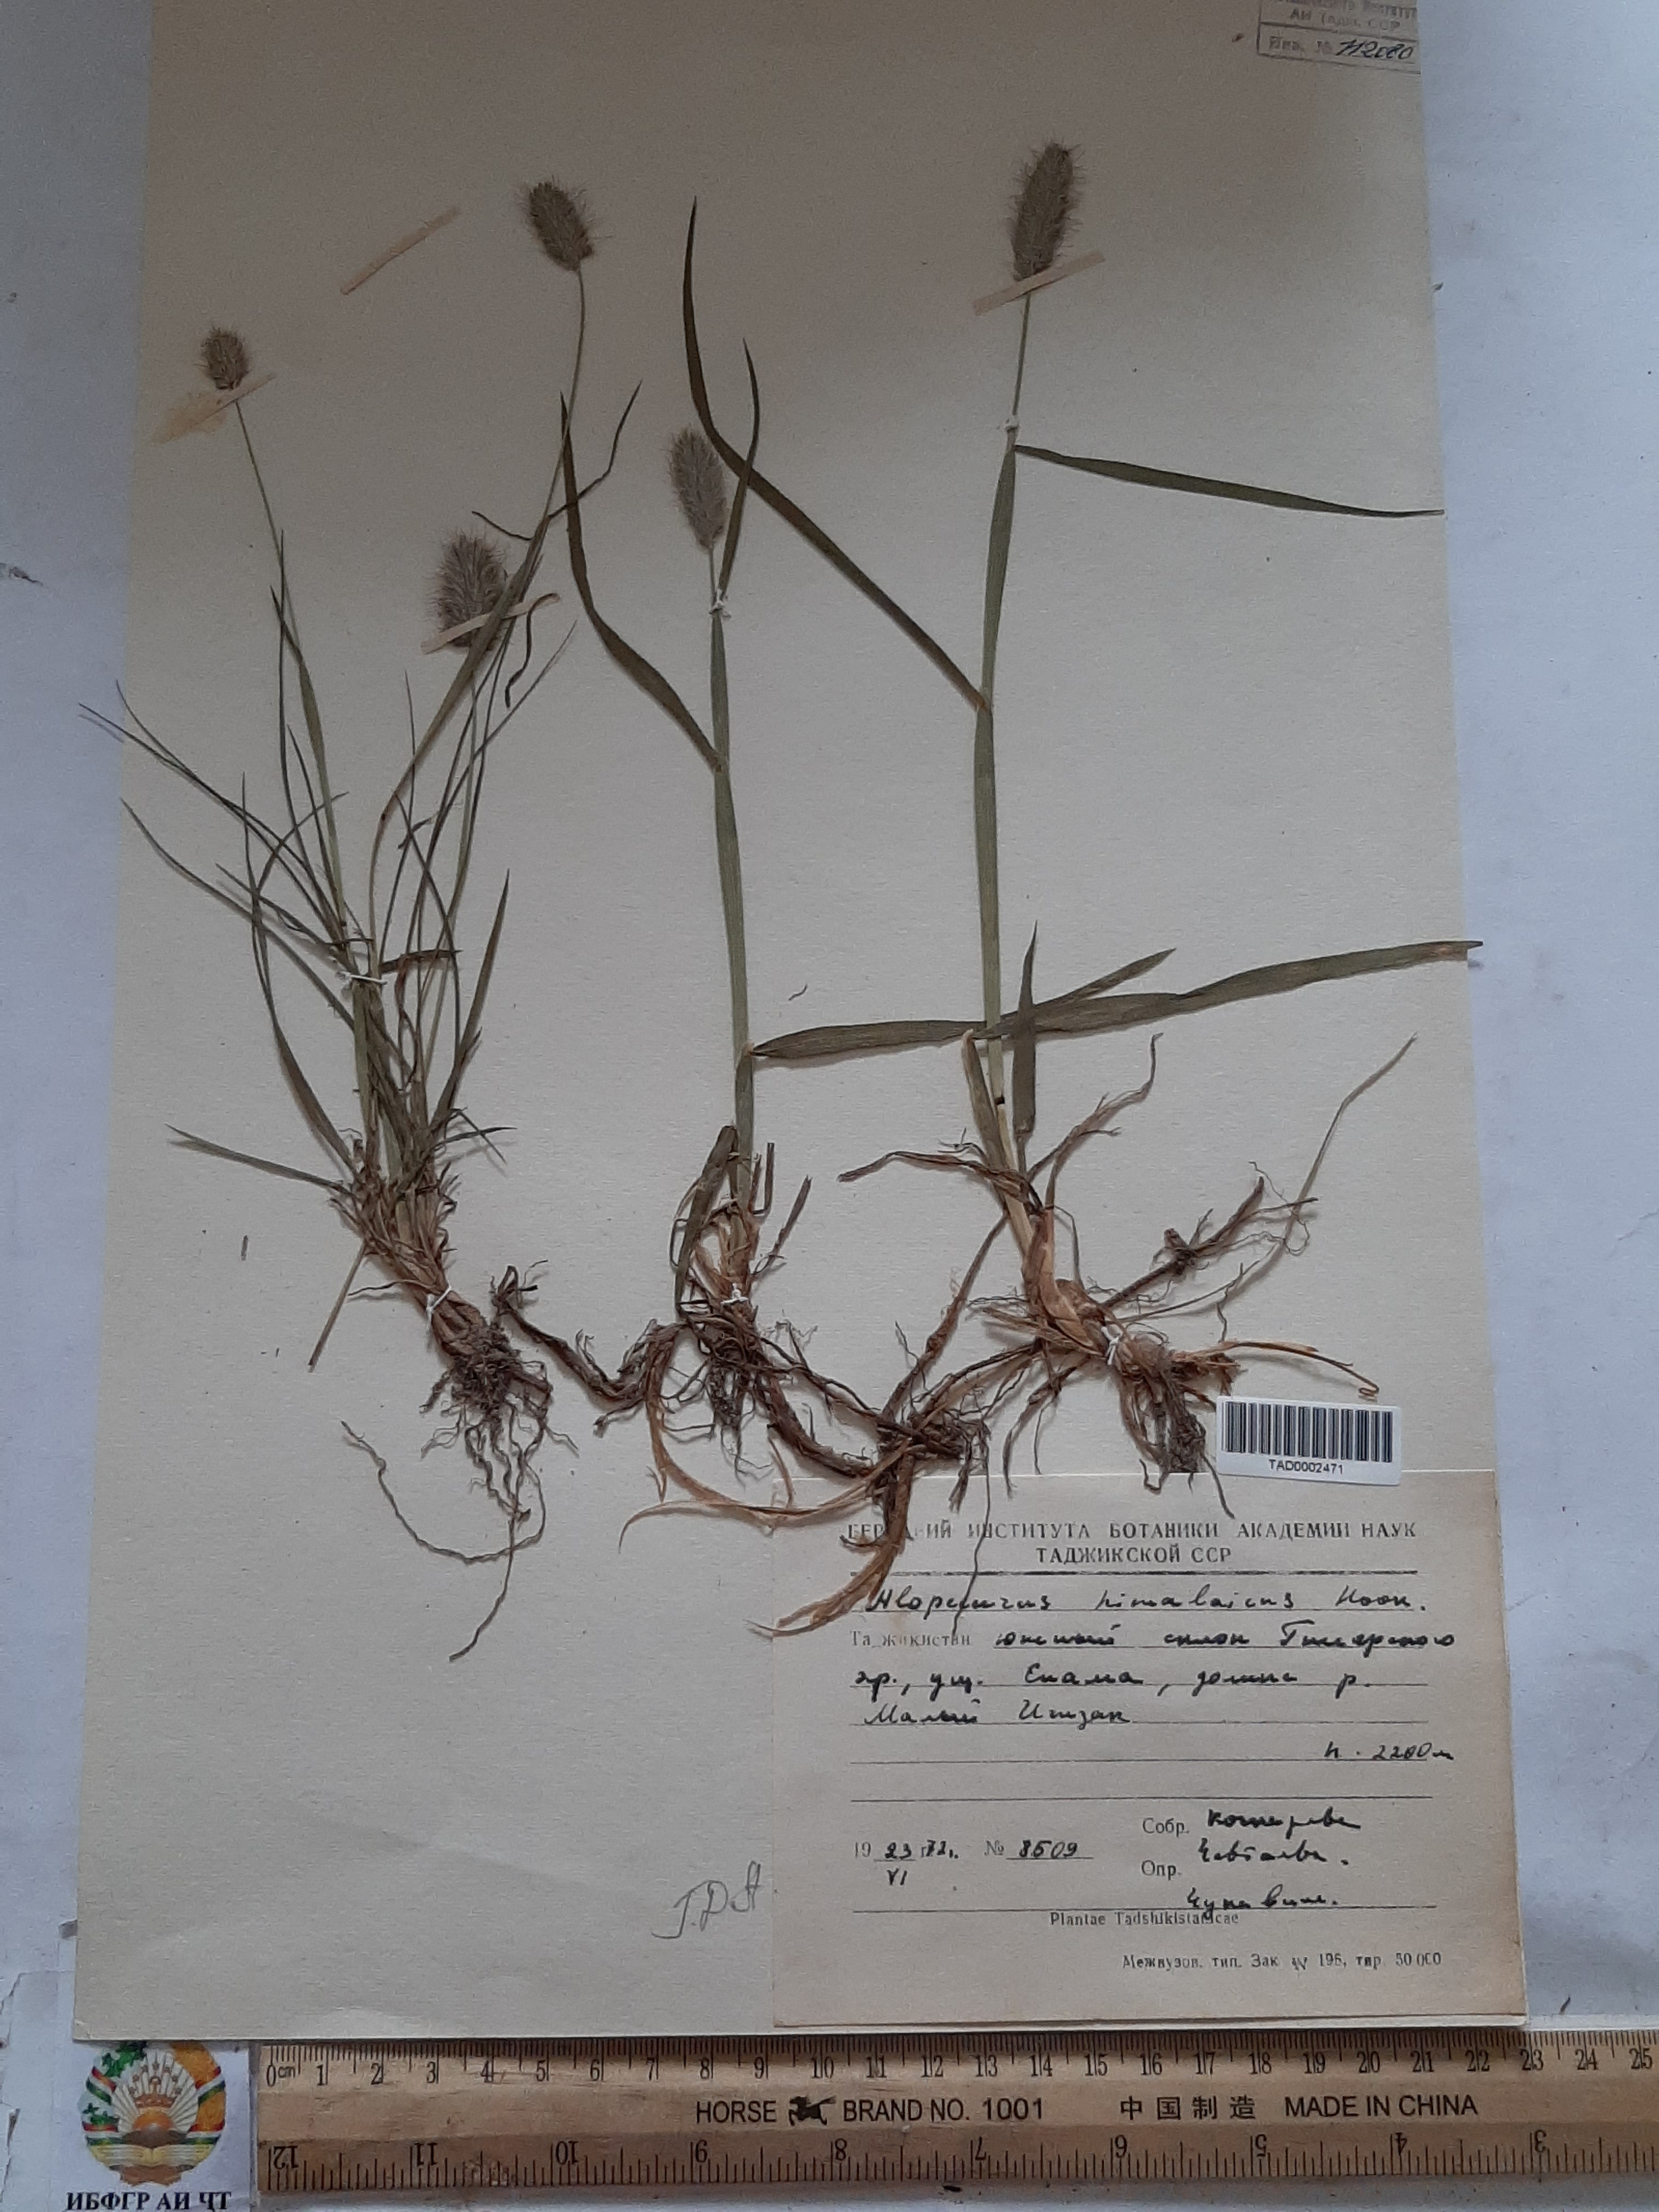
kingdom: Plantae
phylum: Tracheophyta
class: Liliopsida
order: Poales
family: Poaceae
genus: Alopecurus
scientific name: Alopecurus himalaicus
